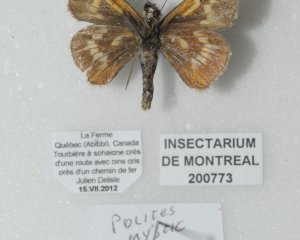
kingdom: Animalia
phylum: Arthropoda
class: Insecta
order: Lepidoptera
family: Hesperiidae
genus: Polites
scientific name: Polites
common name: Long Dash Skipper
